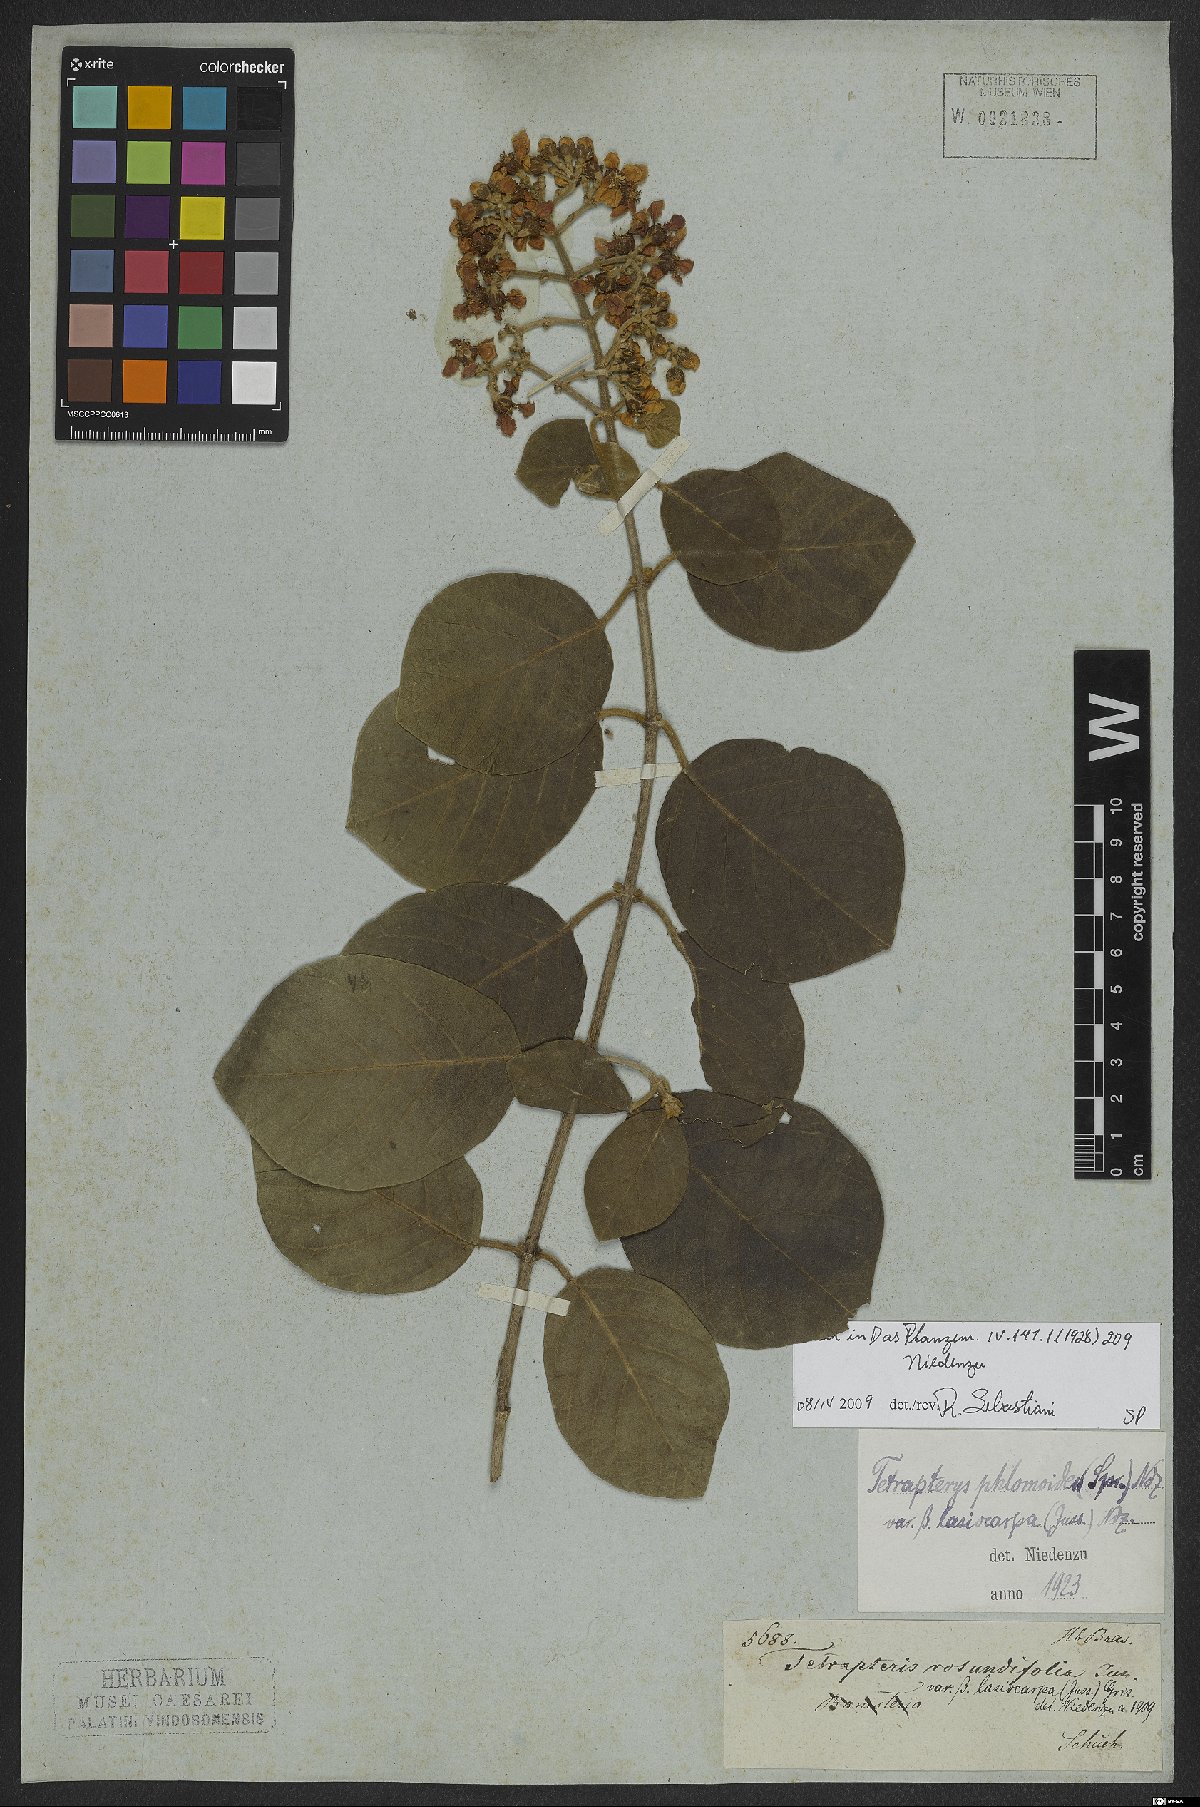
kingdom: Plantae
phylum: Tracheophyta
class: Magnoliopsida
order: Malpighiales
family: Malpighiaceae
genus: Tetrapterys
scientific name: Tetrapterys phlomoides
